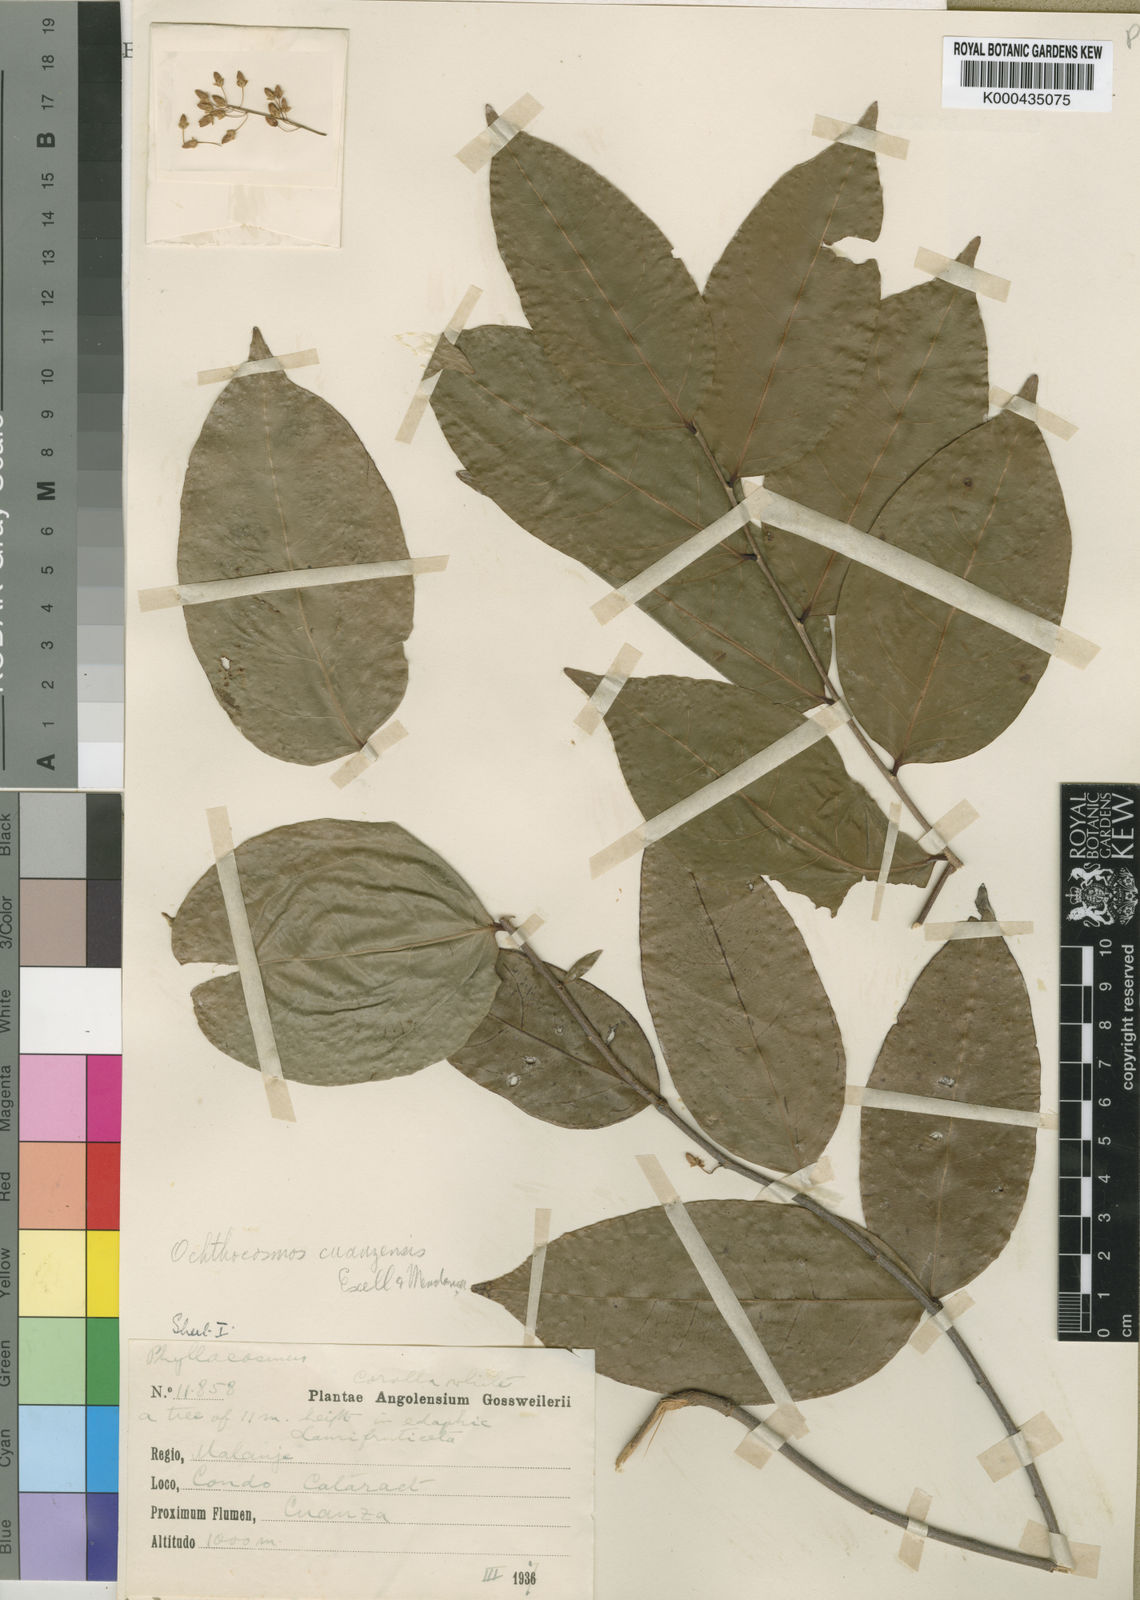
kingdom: Plantae
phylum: Tracheophyta
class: Magnoliopsida
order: Malpighiales
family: Ixonanthaceae
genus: Phyllocosmus
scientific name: Phyllocosmus
